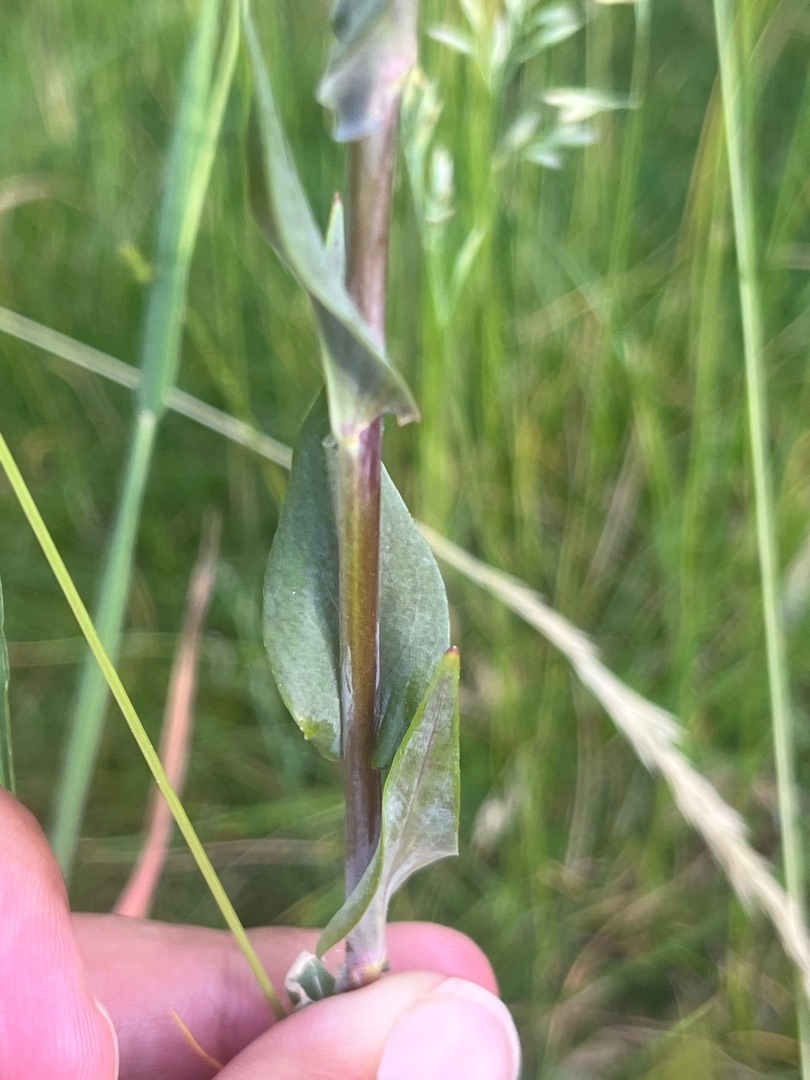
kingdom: Plantae
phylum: Tracheophyta
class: Magnoliopsida
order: Brassicales
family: Brassicaceae
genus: Turritis
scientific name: Turritis glabra
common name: Tårnurt
